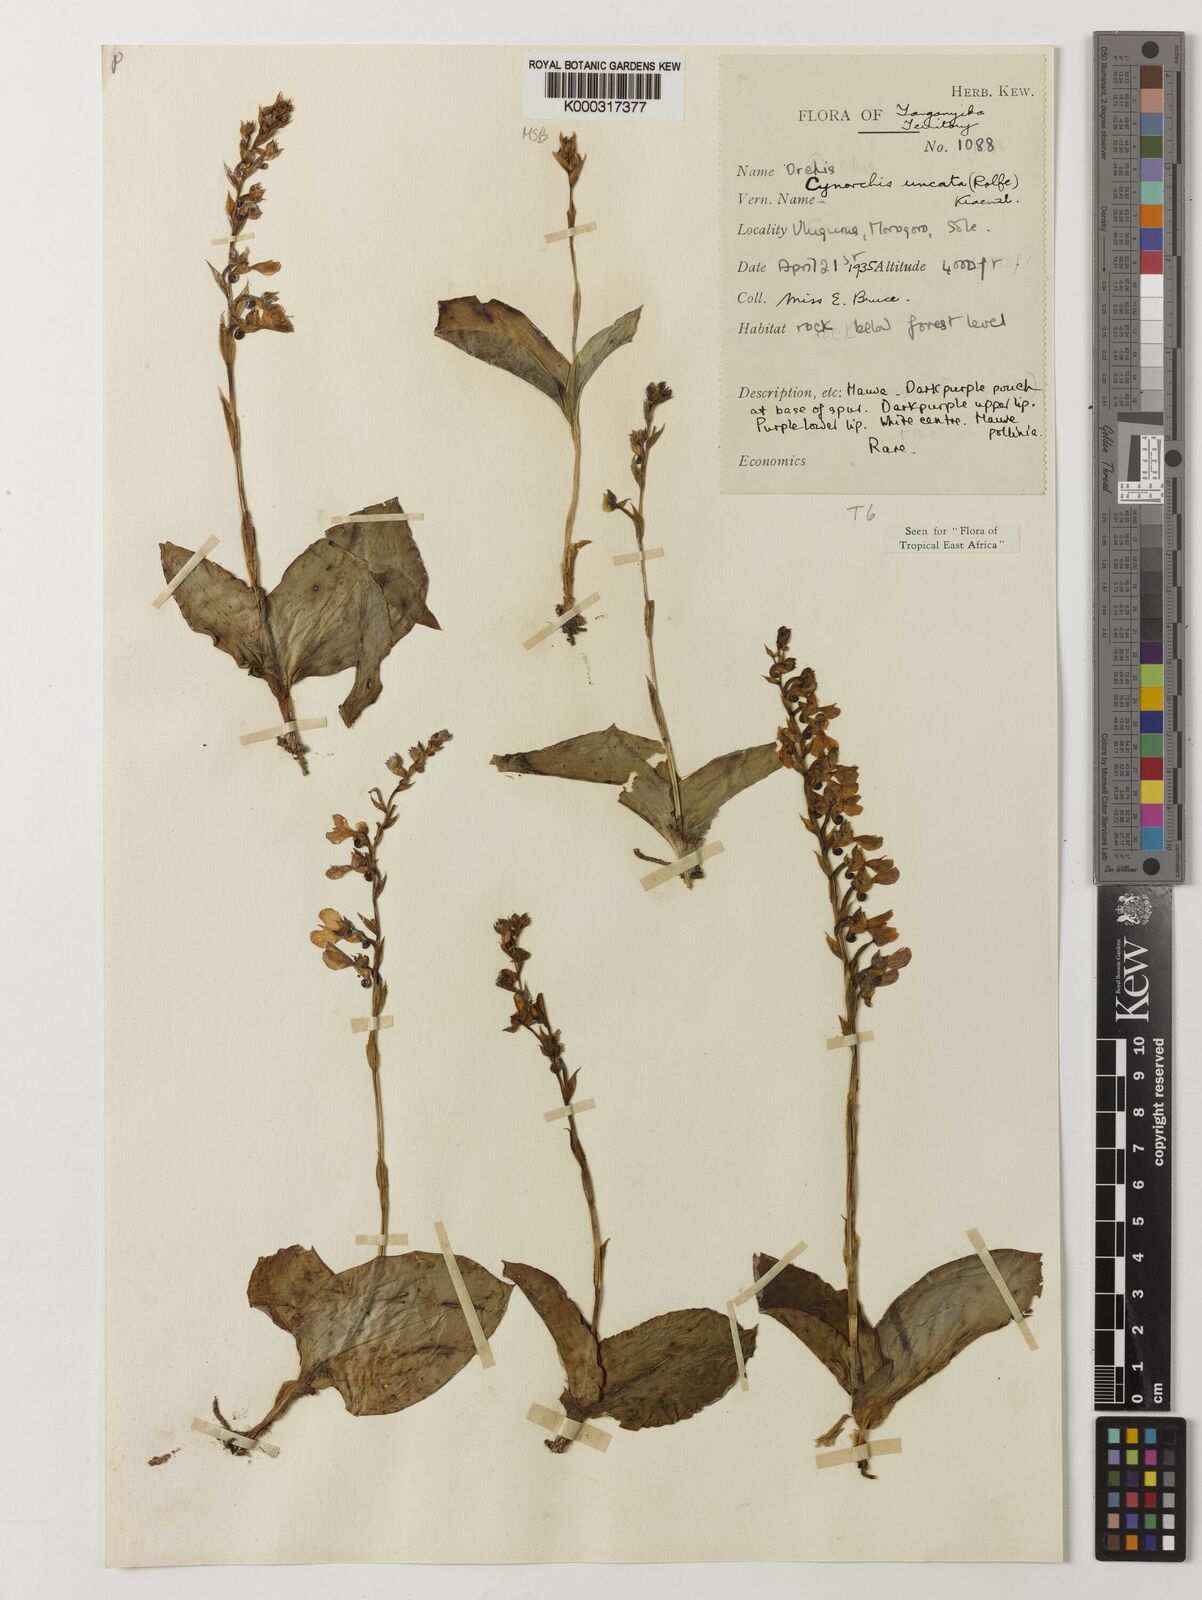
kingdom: Plantae
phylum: Tracheophyta
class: Liliopsida
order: Asparagales
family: Orchidaceae
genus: Cynorkis
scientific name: Cynorkis uncata
